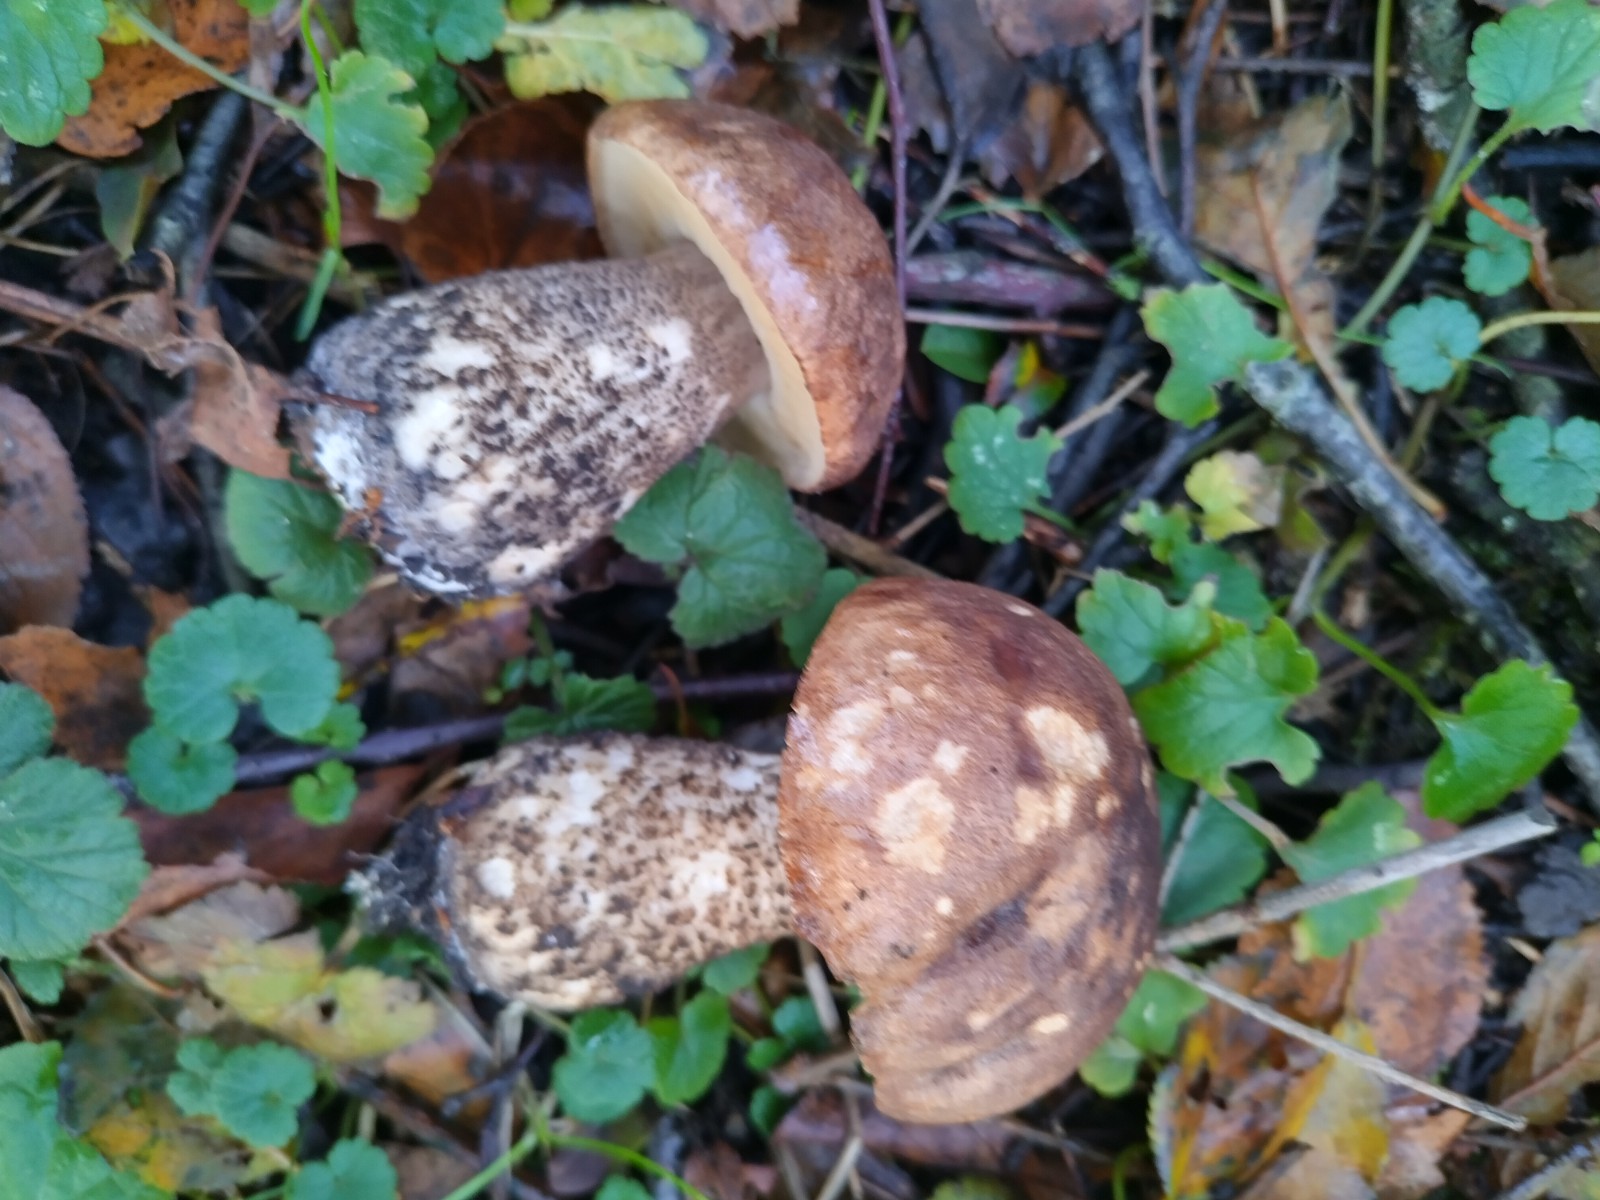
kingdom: Fungi
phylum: Basidiomycota
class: Agaricomycetes
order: Boletales
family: Boletaceae
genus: Leccinum
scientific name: Leccinum scabrum
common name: brun skælrørhat
